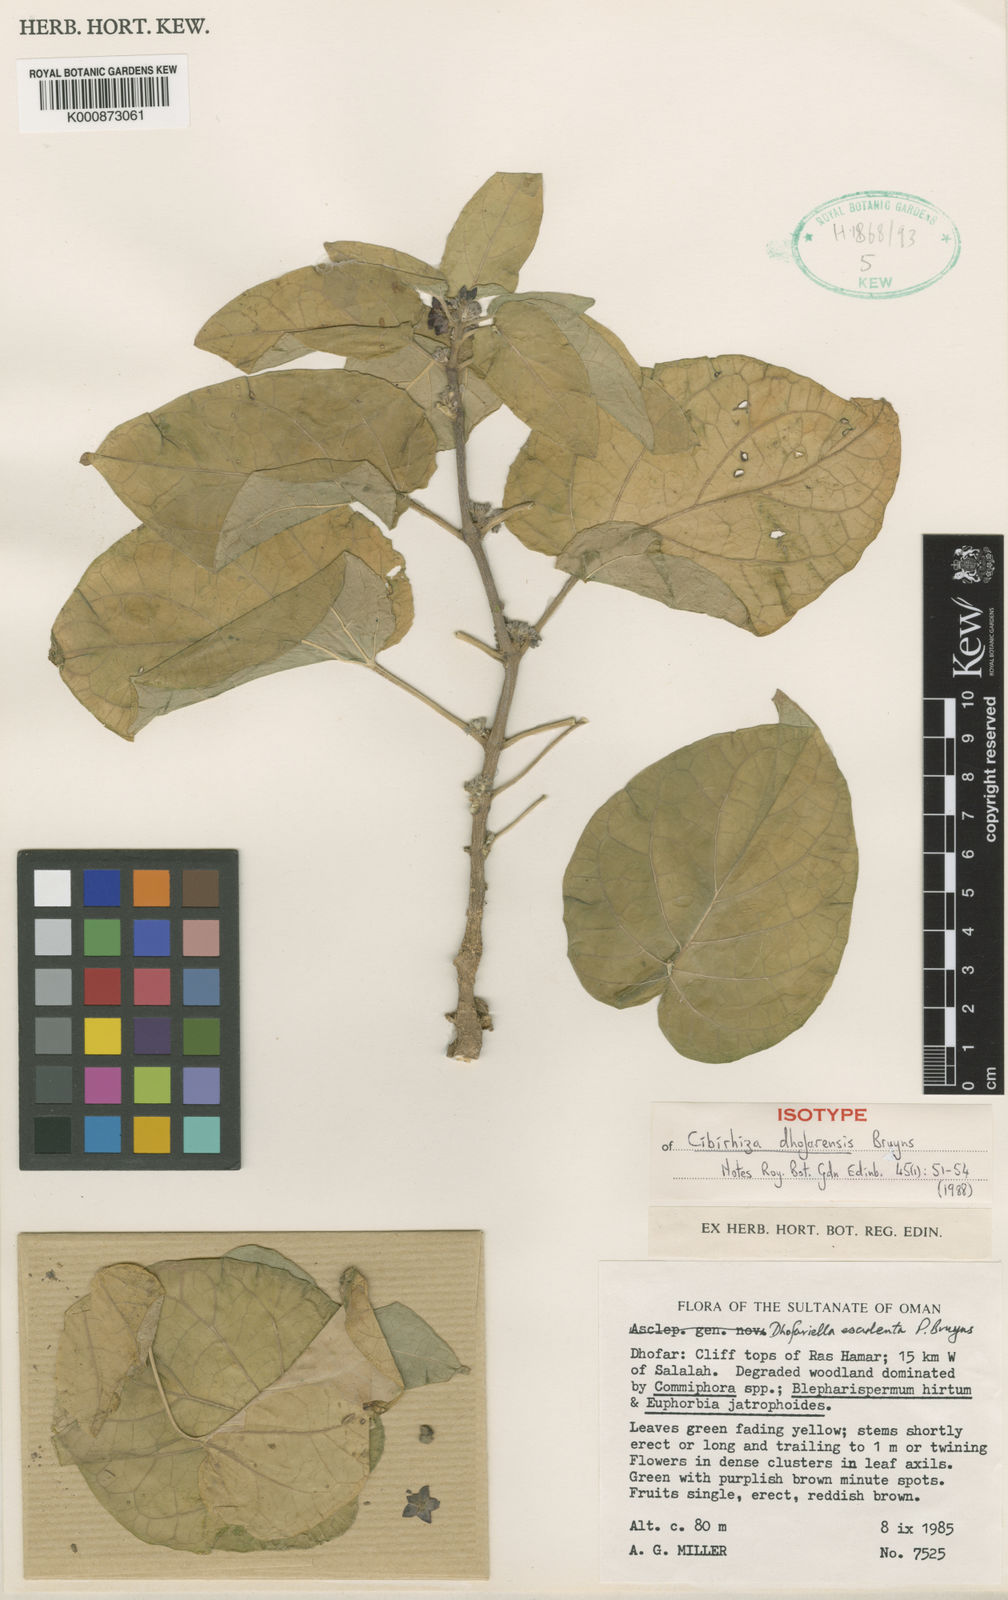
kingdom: Plantae
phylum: Tracheophyta
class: Magnoliopsida
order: Gentianales
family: Apocynaceae
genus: Cibirhiza
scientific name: Cibirhiza dhofarensis
